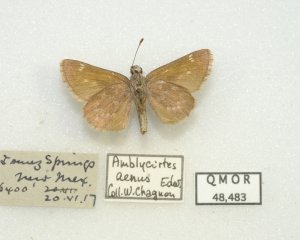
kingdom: Animalia
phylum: Arthropoda
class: Insecta
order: Lepidoptera
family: Hesperiidae
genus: Mastor
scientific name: Mastor aenus
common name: Bronze Roadside-Skipper
